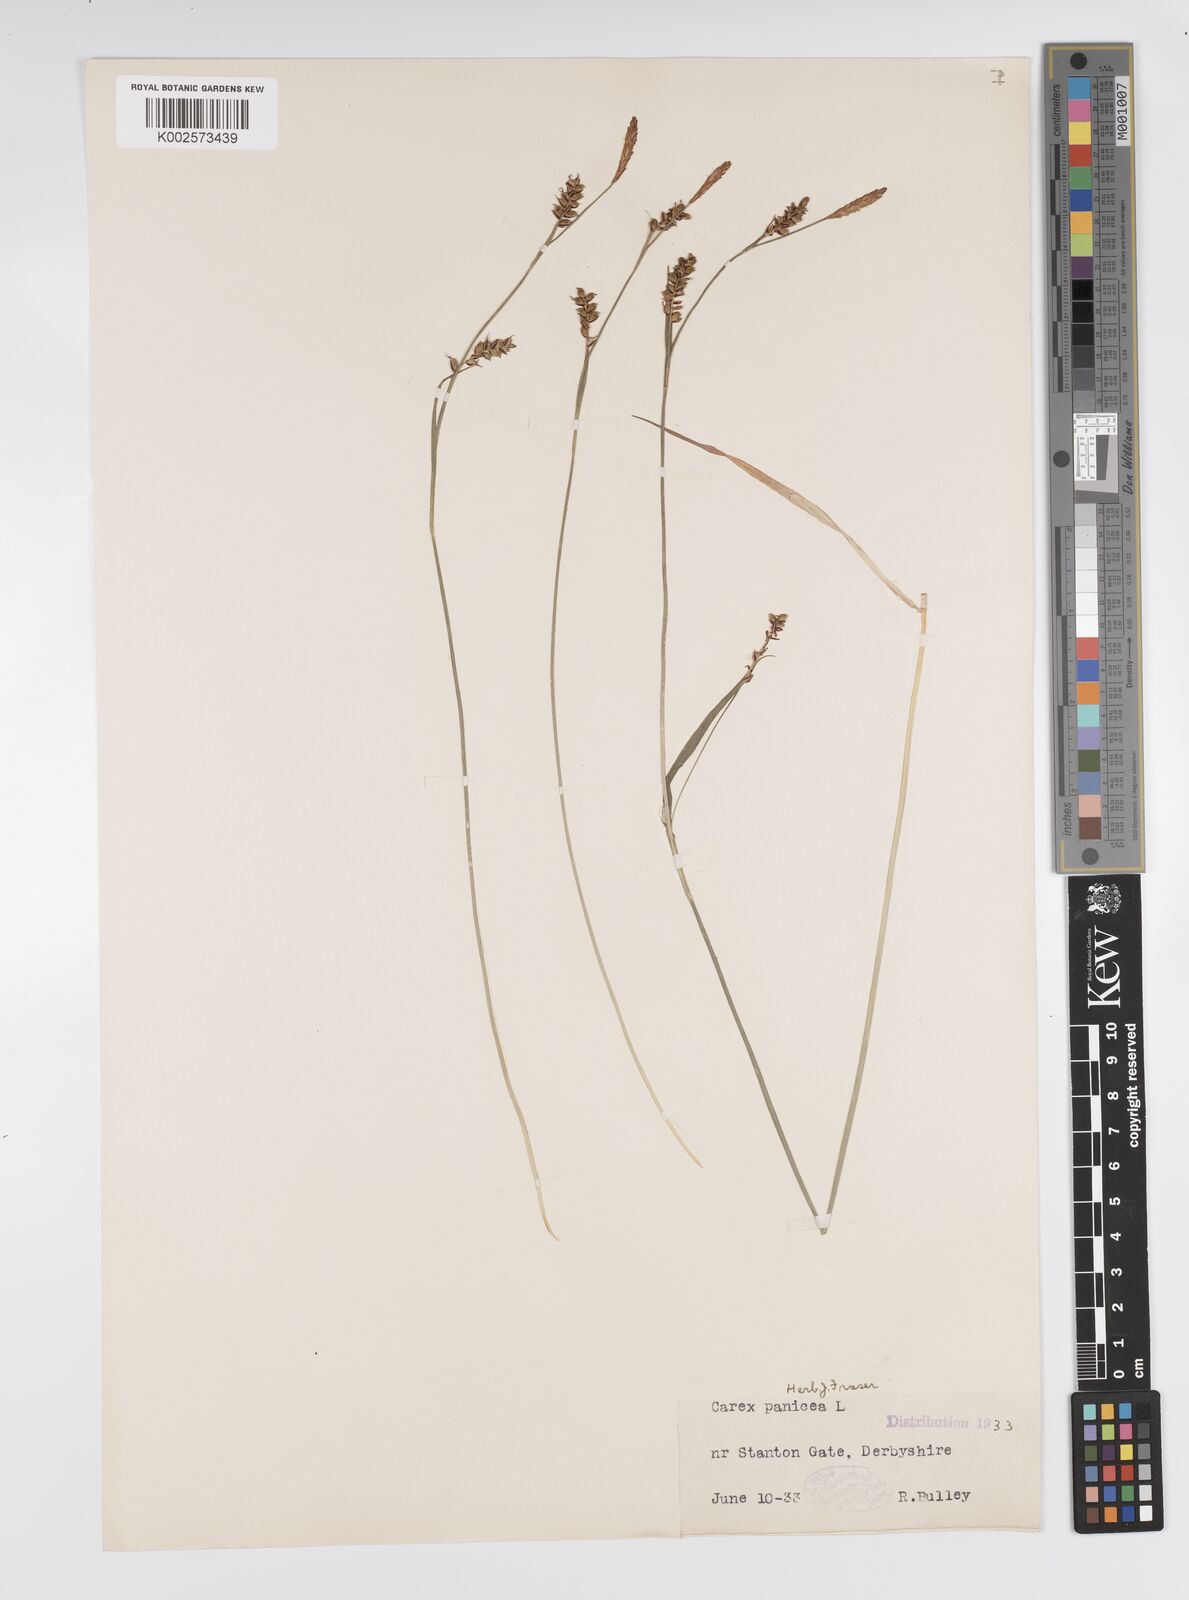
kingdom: Plantae
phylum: Tracheophyta
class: Liliopsida
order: Poales
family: Cyperaceae
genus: Carex
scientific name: Carex panicea
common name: Carnation sedge
